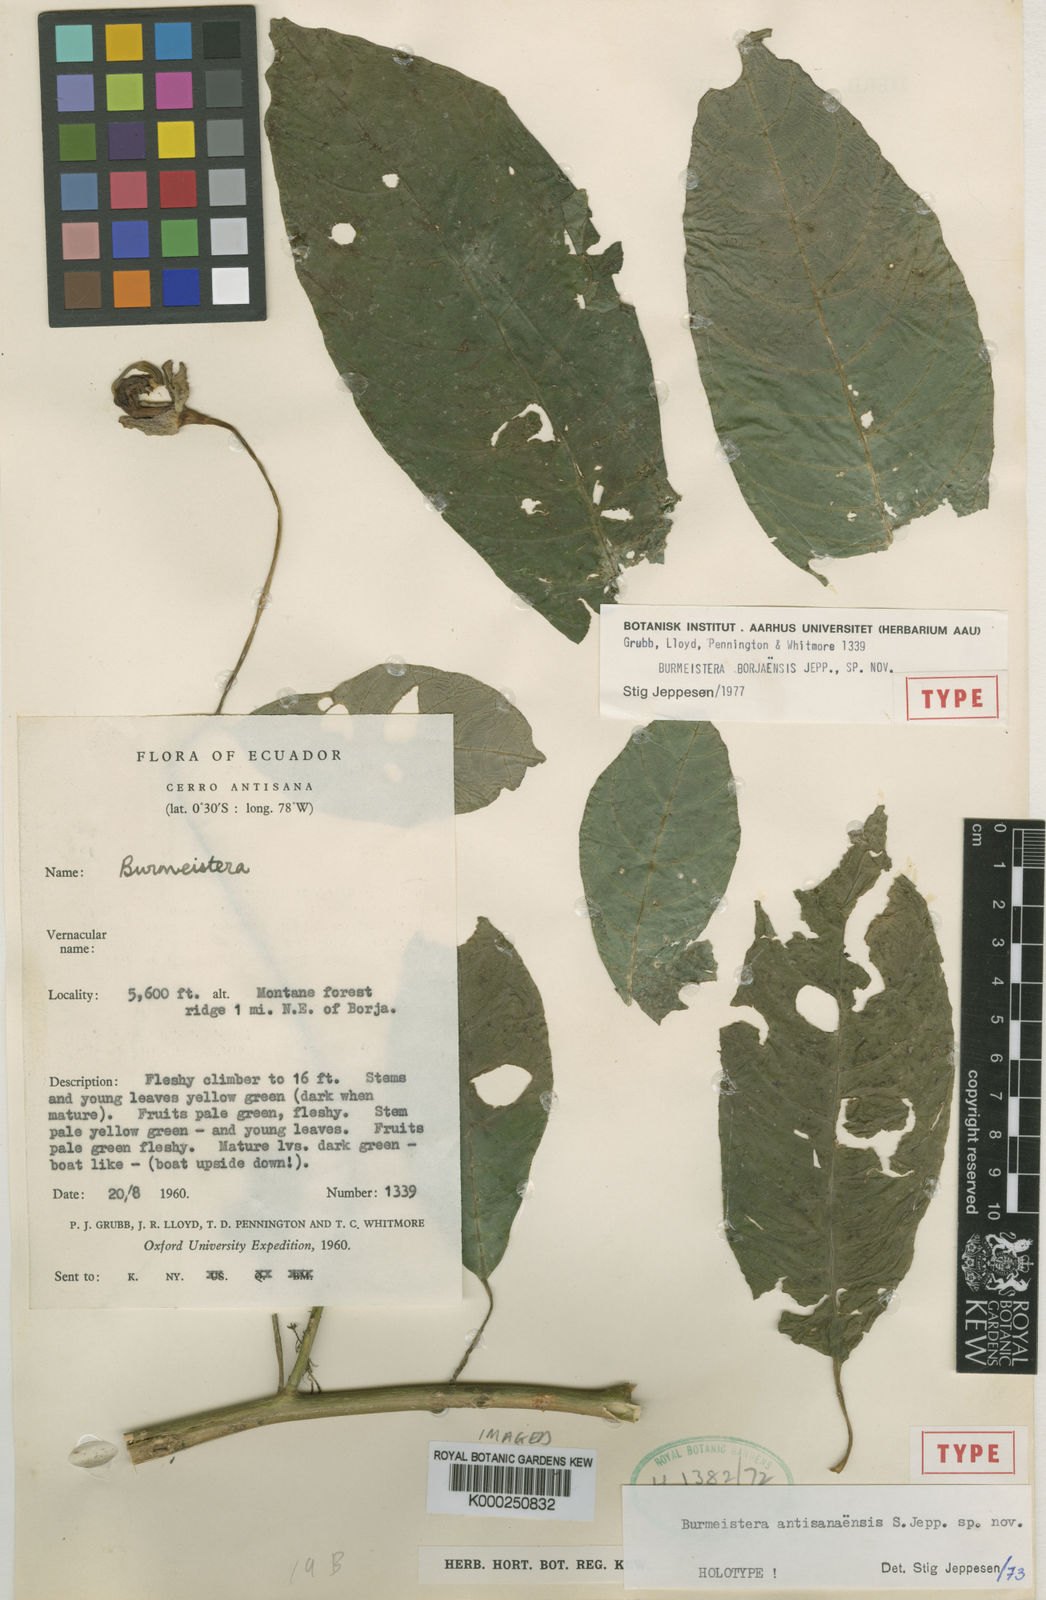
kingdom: Plantae
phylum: Tracheophyta
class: Magnoliopsida
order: Asterales
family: Campanulaceae
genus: Burmeistera
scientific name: Burmeistera borjensis
